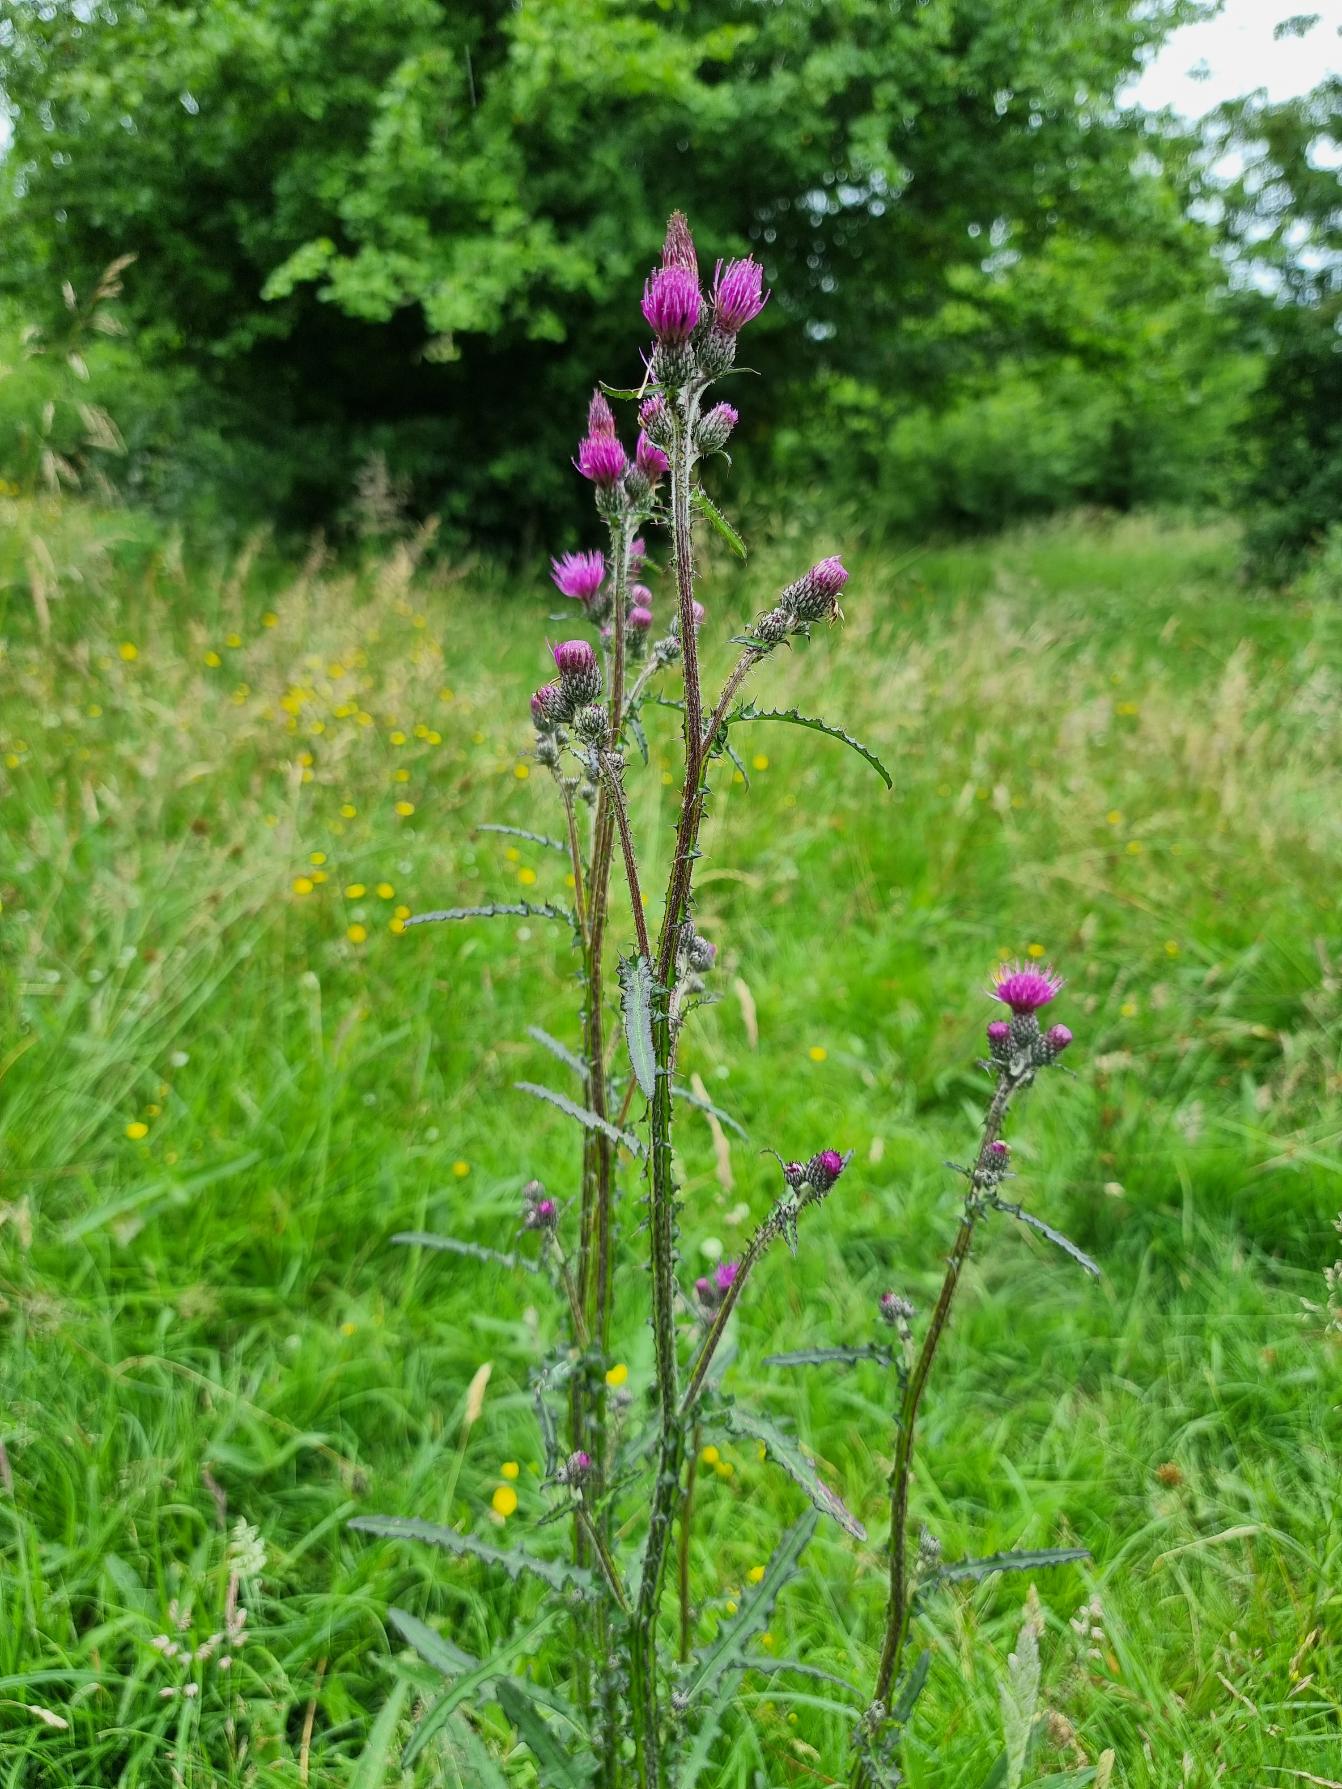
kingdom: Plantae
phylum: Tracheophyta
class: Magnoliopsida
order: Asterales
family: Asteraceae
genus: Cirsium
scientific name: Cirsium palustre
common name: Kær-tidsel
